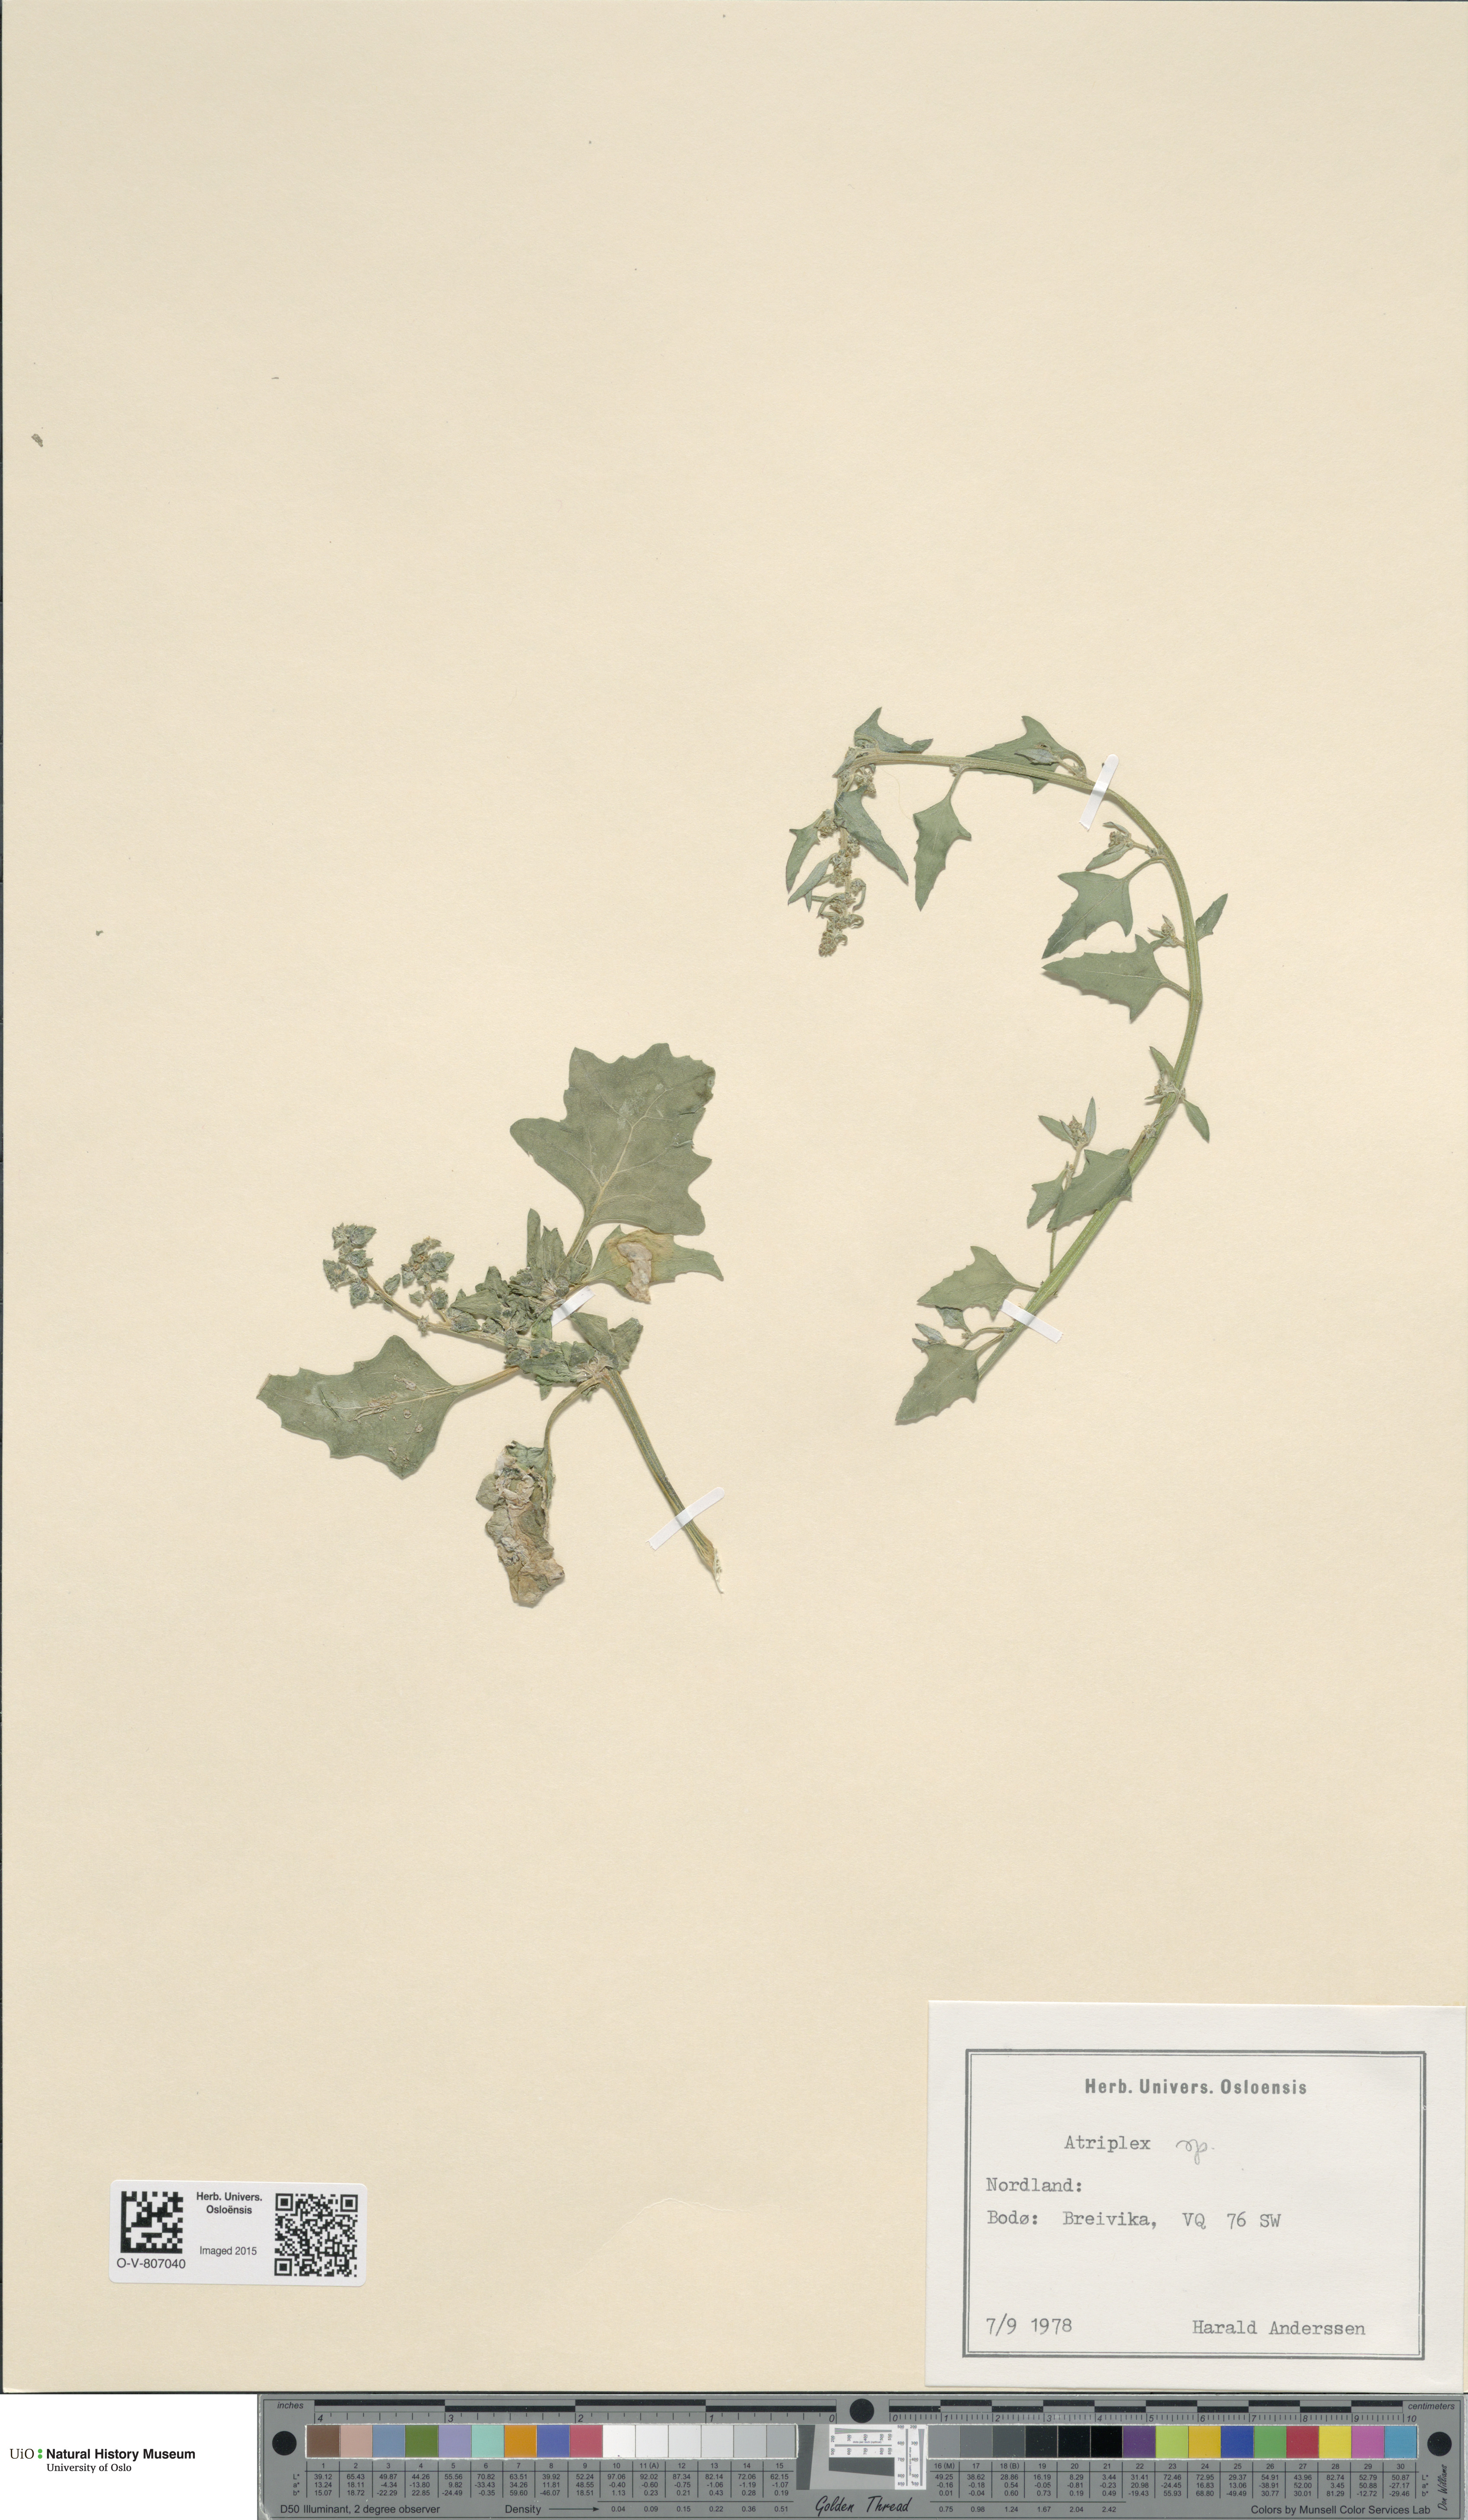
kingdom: Plantae
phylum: Tracheophyta
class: Magnoliopsida
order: Caryophyllales
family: Amaranthaceae
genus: Atriplex
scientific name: Atriplex
